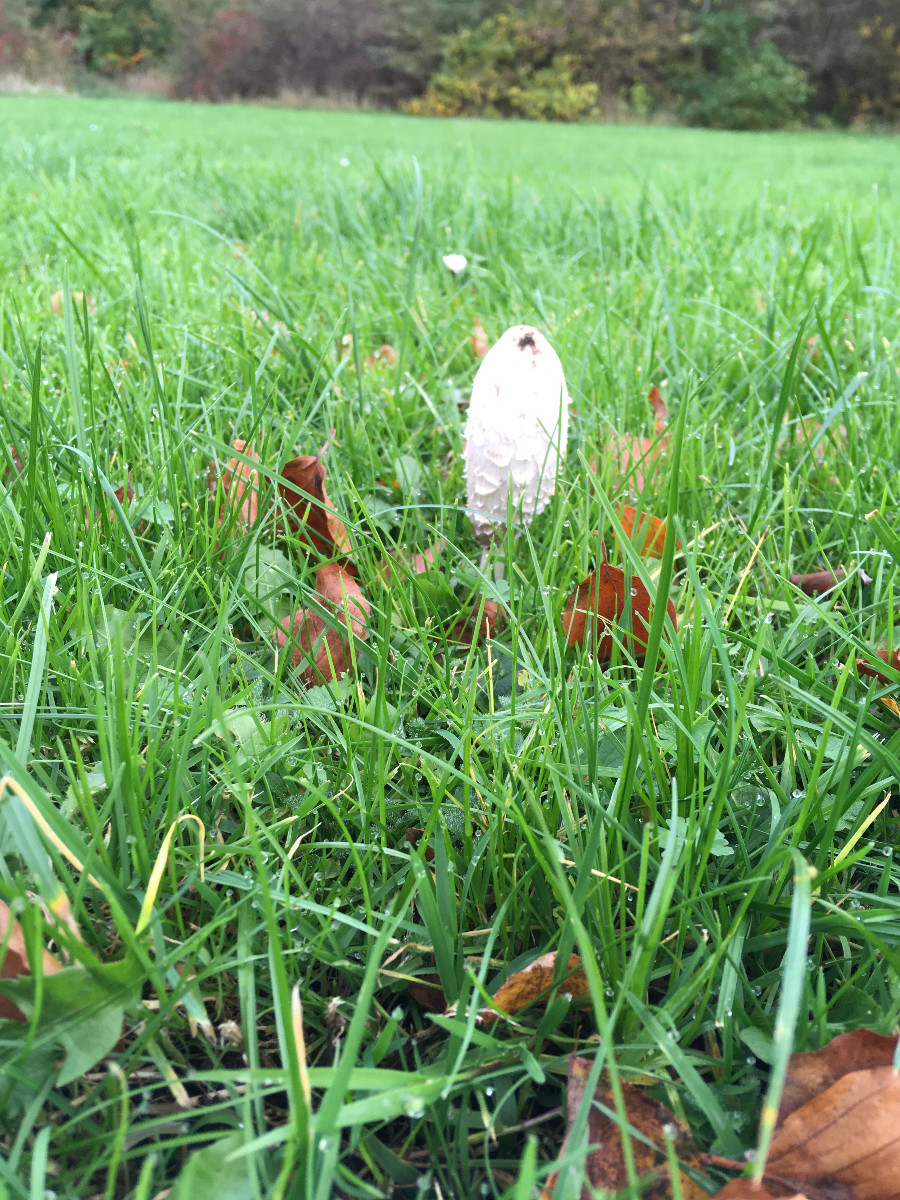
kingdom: Fungi
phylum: Basidiomycota
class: Agaricomycetes
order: Agaricales
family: Agaricaceae
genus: Coprinus
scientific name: Coprinus comatus
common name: stor parykhat
